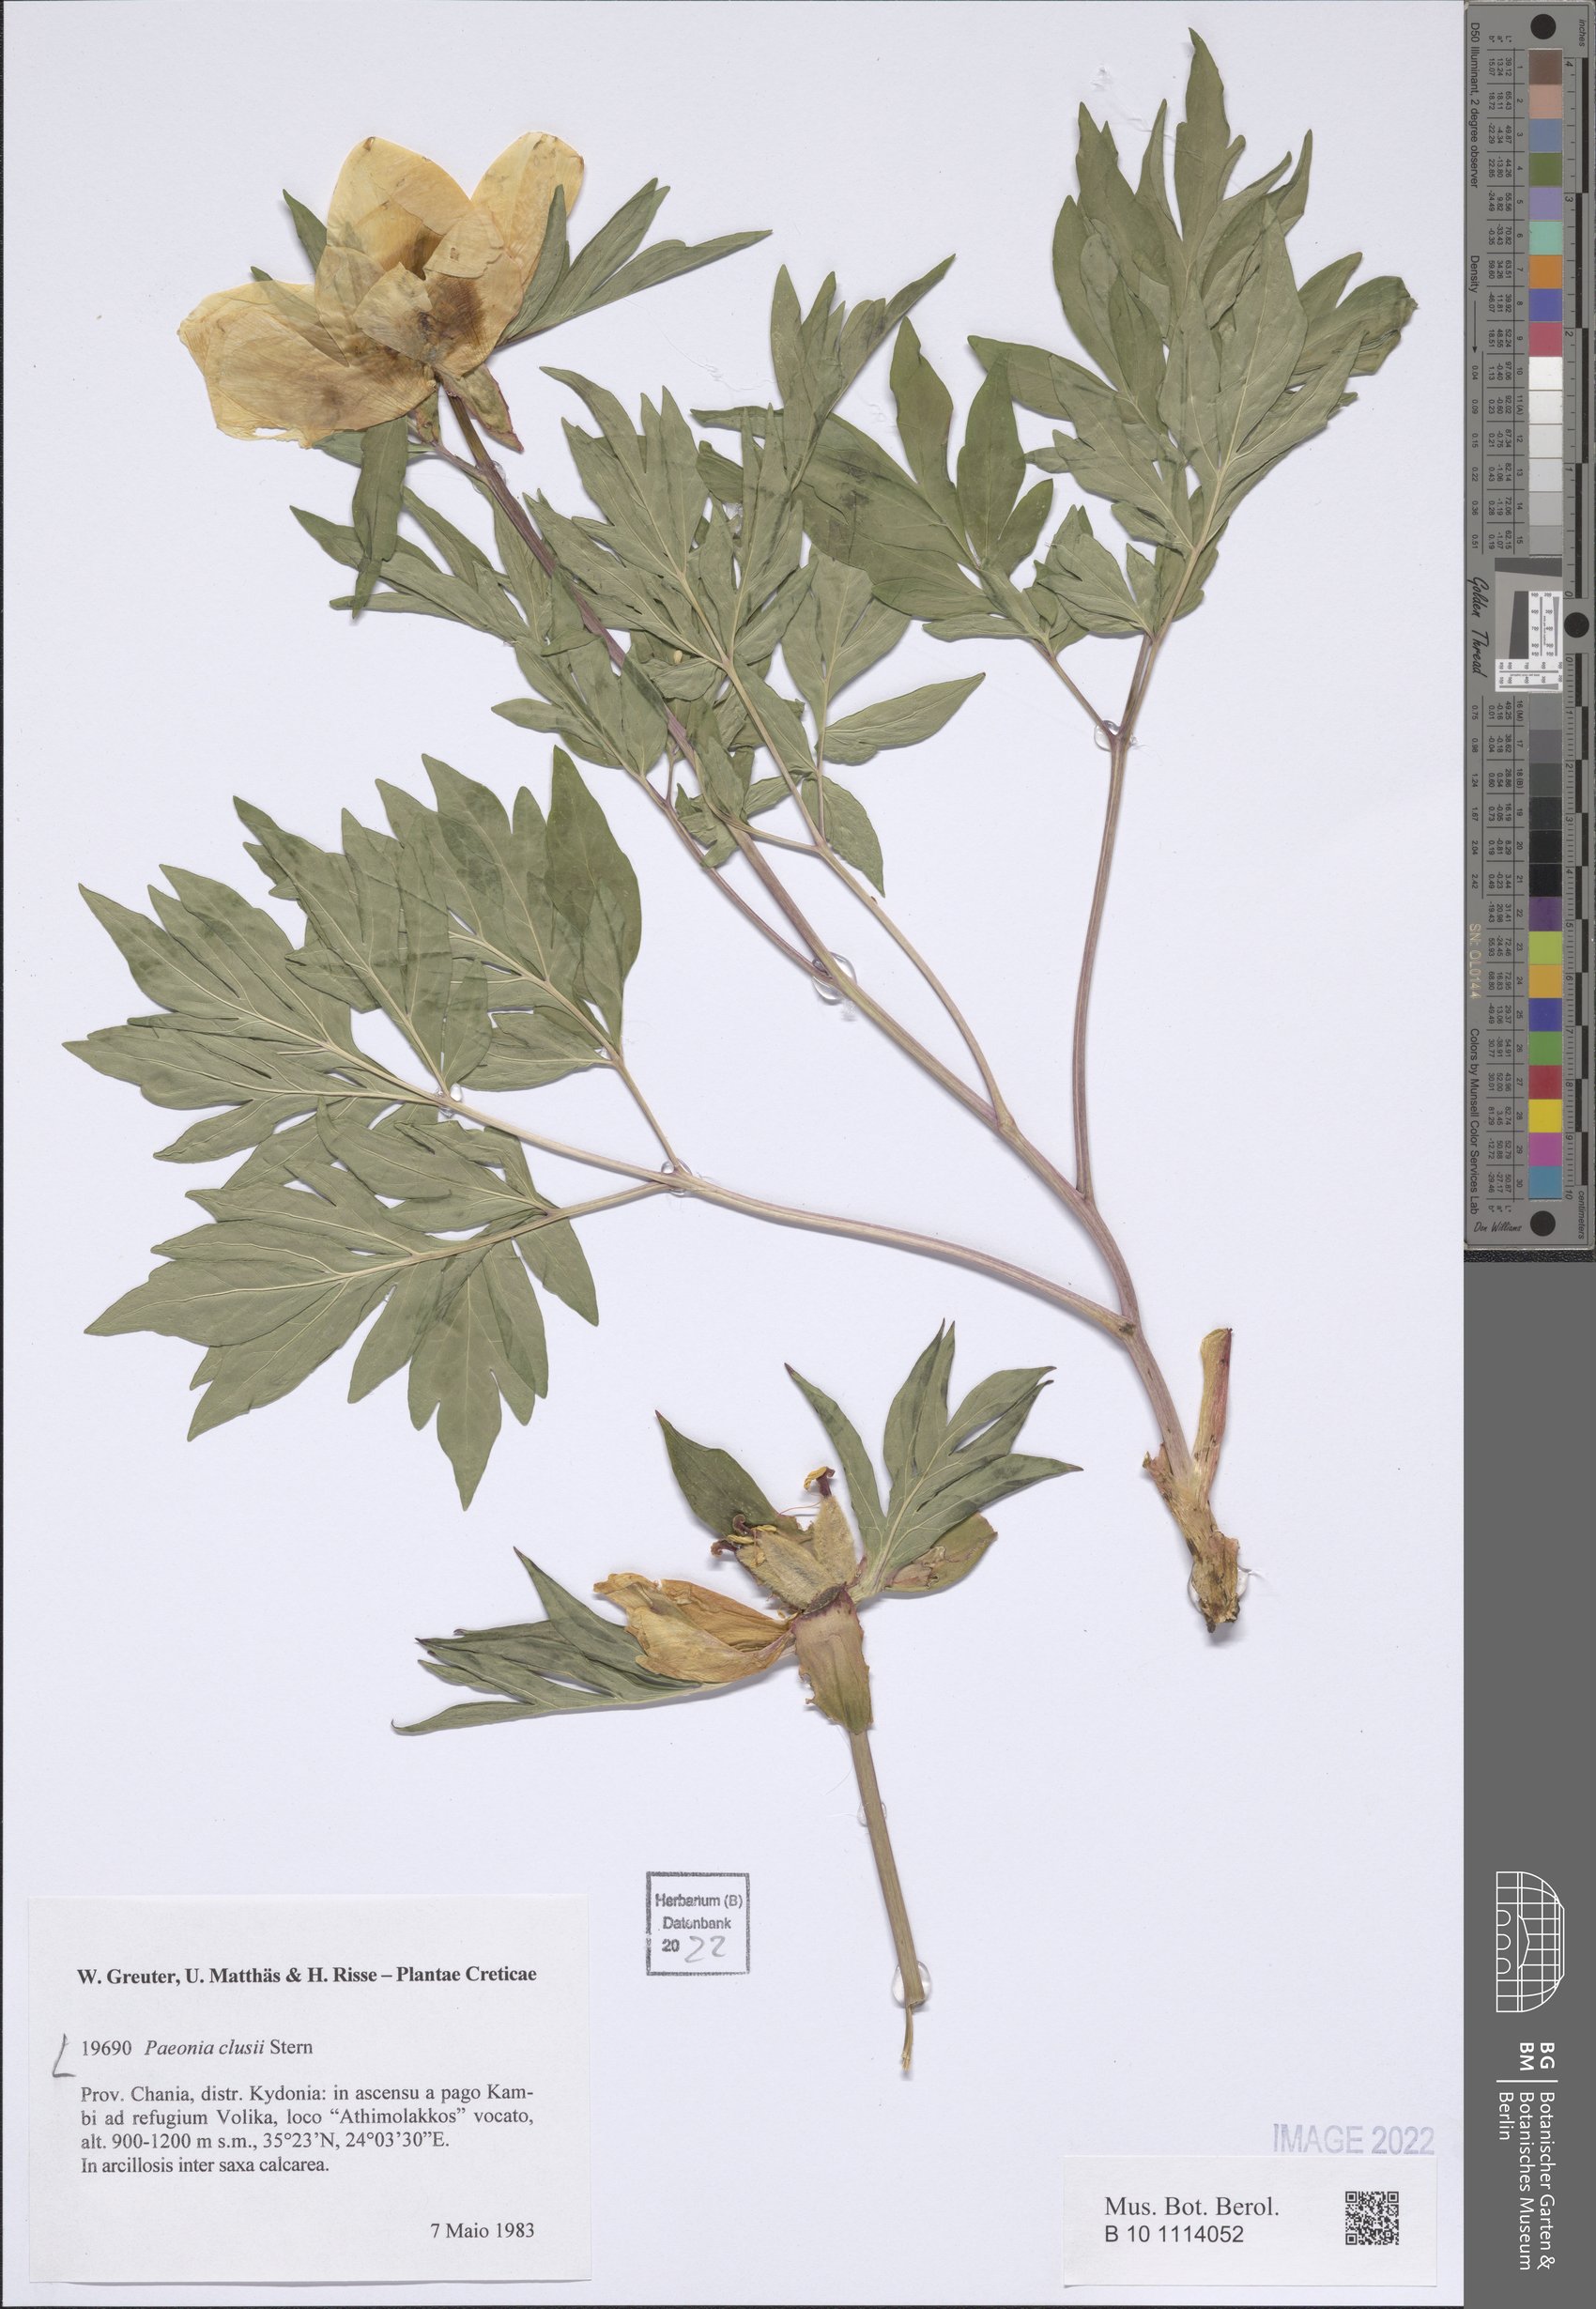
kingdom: Plantae
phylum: Tracheophyta
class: Magnoliopsida
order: Saxifragales
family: Paeoniaceae
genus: Paeonia
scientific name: Paeonia clusii
